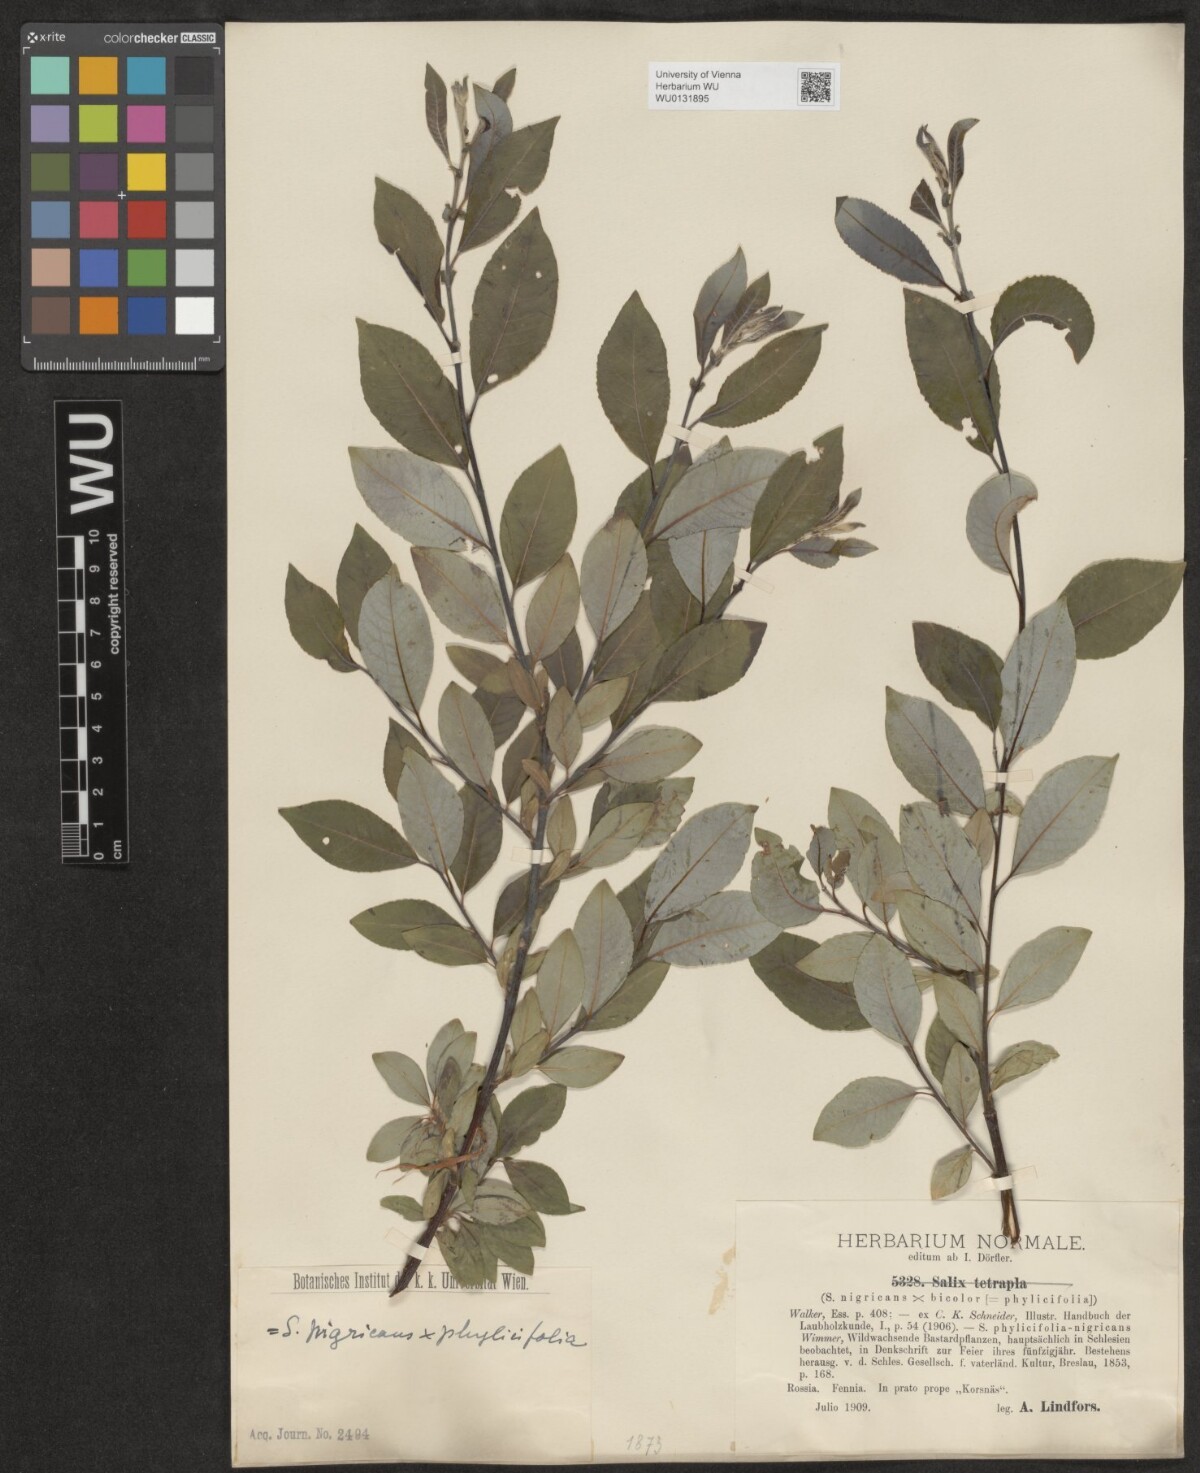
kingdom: Plantae
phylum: Tracheophyta
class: Magnoliopsida
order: Malpighiales
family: Salicaceae
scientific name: Salicaceae
